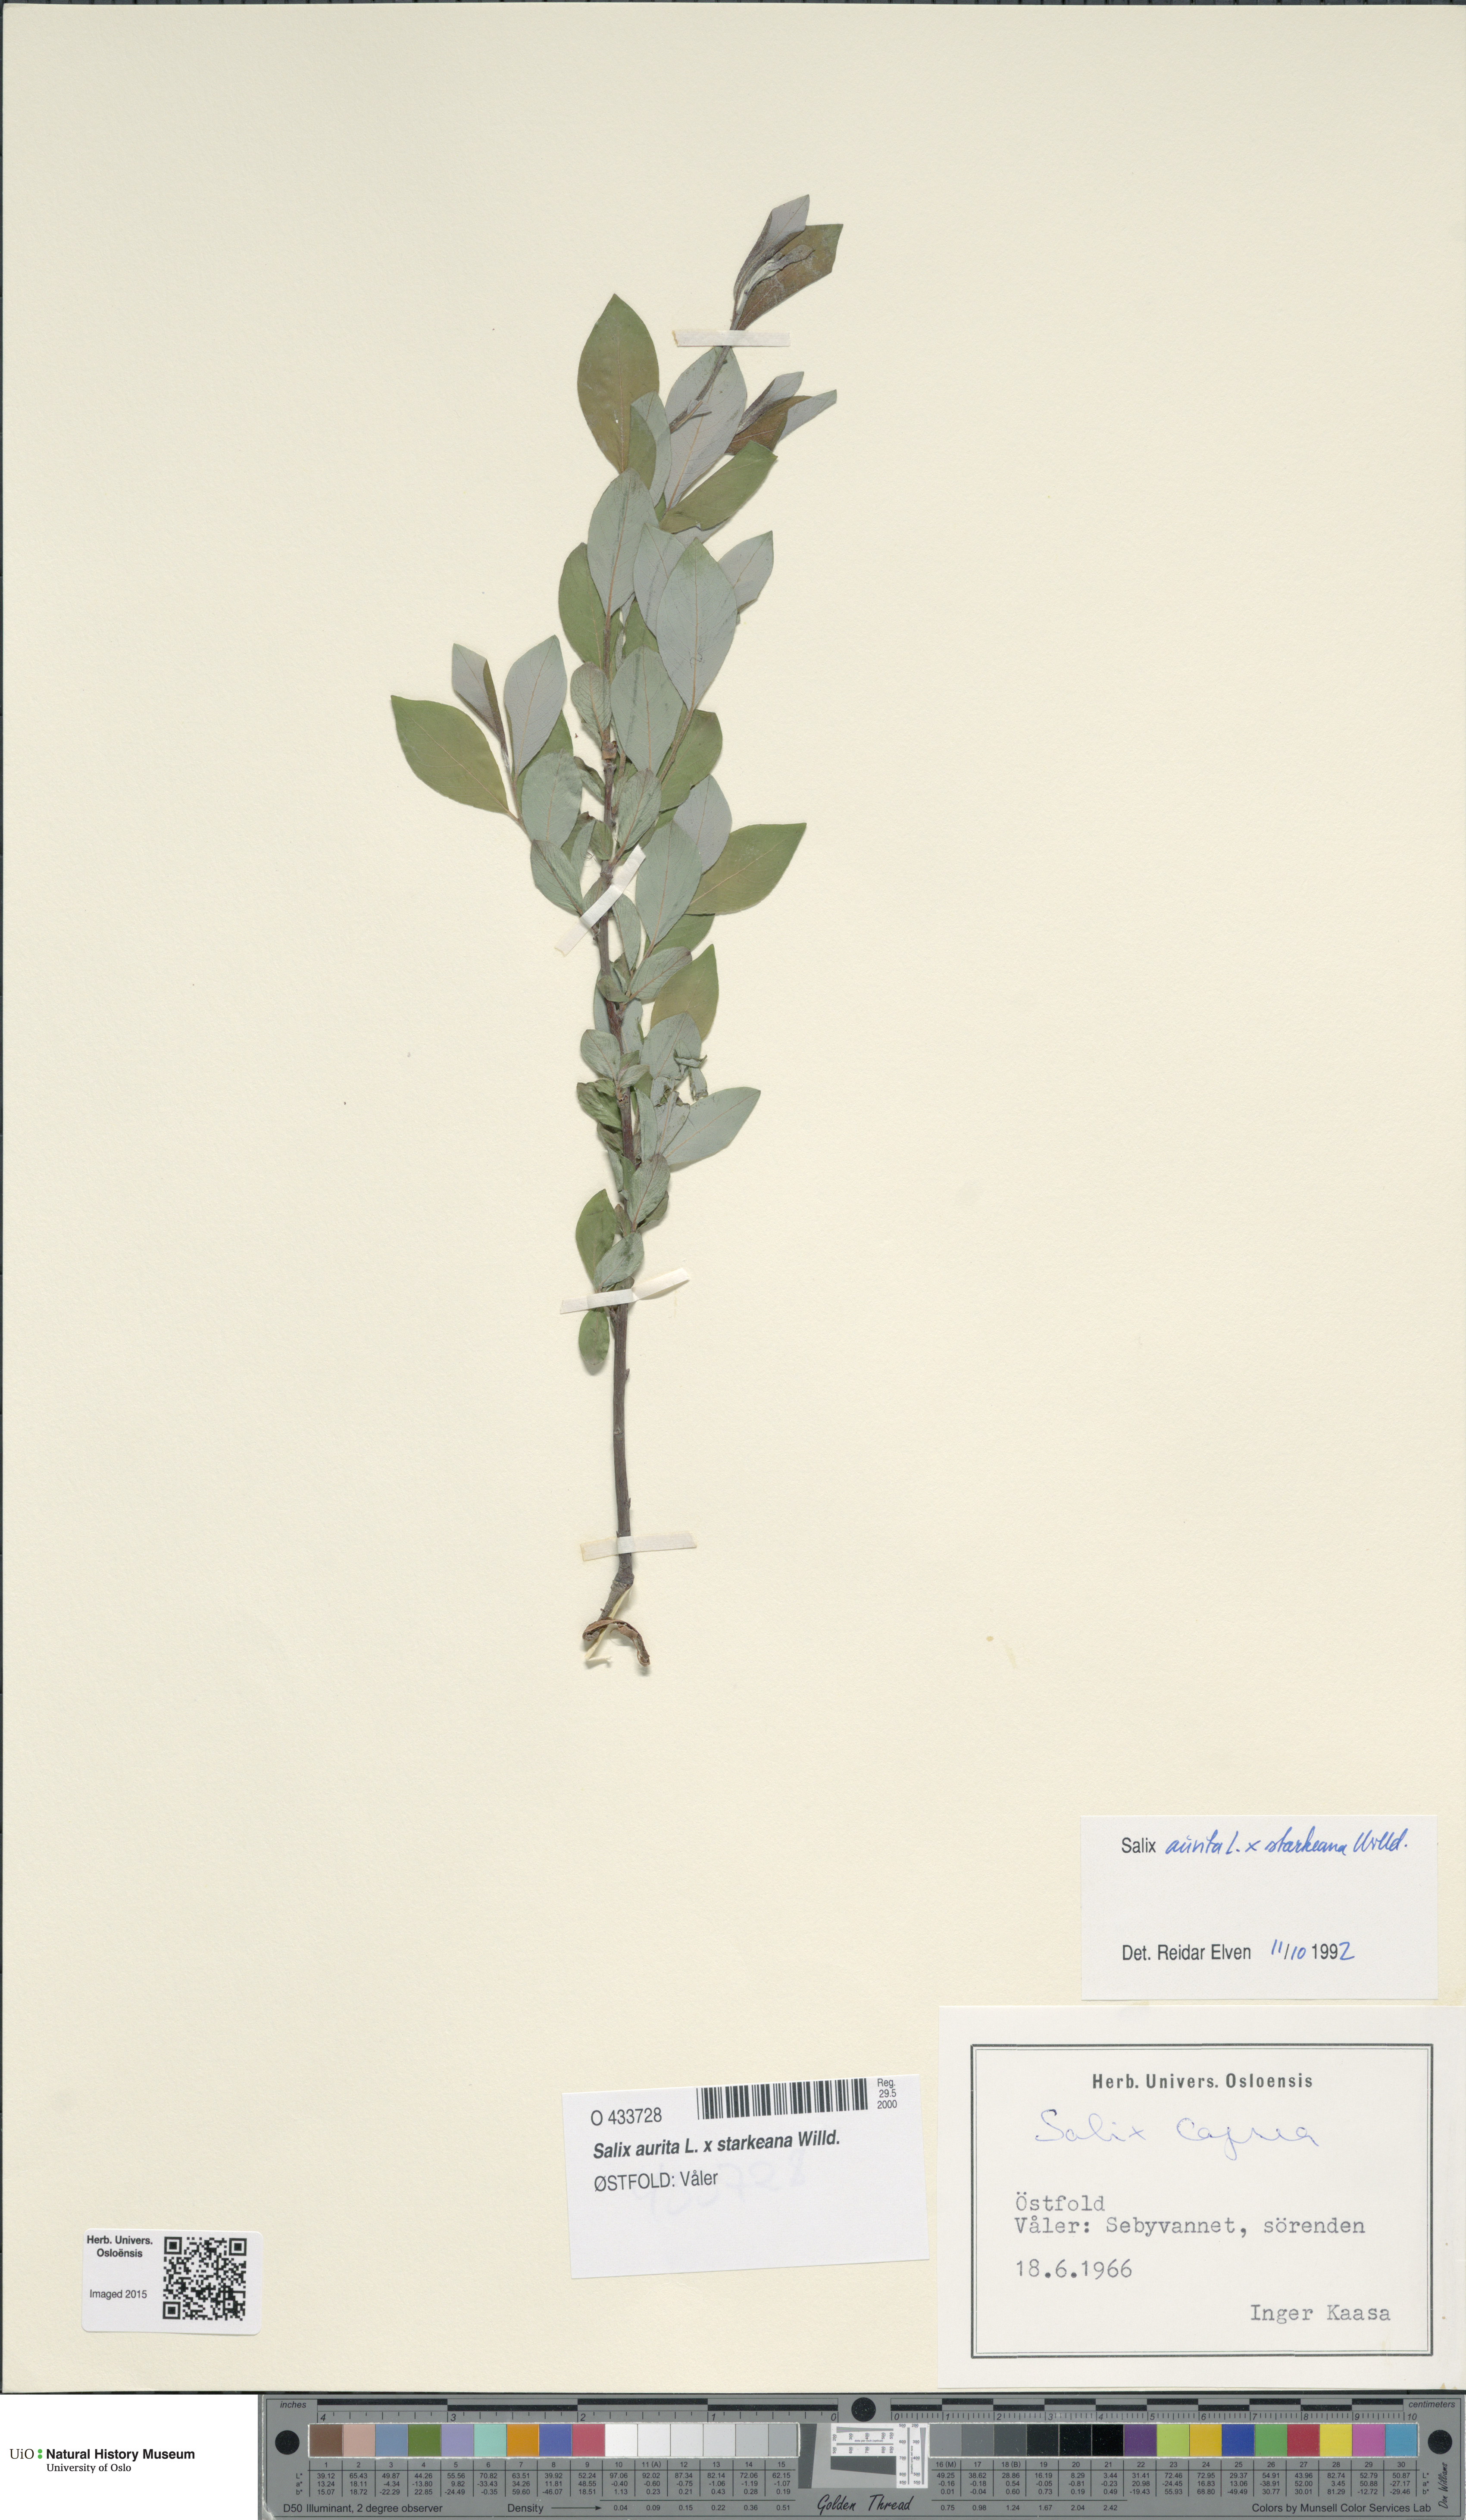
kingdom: Plantae
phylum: Tracheophyta
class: Magnoliopsida
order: Malpighiales
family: Salicaceae
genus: Salix
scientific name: Salix
